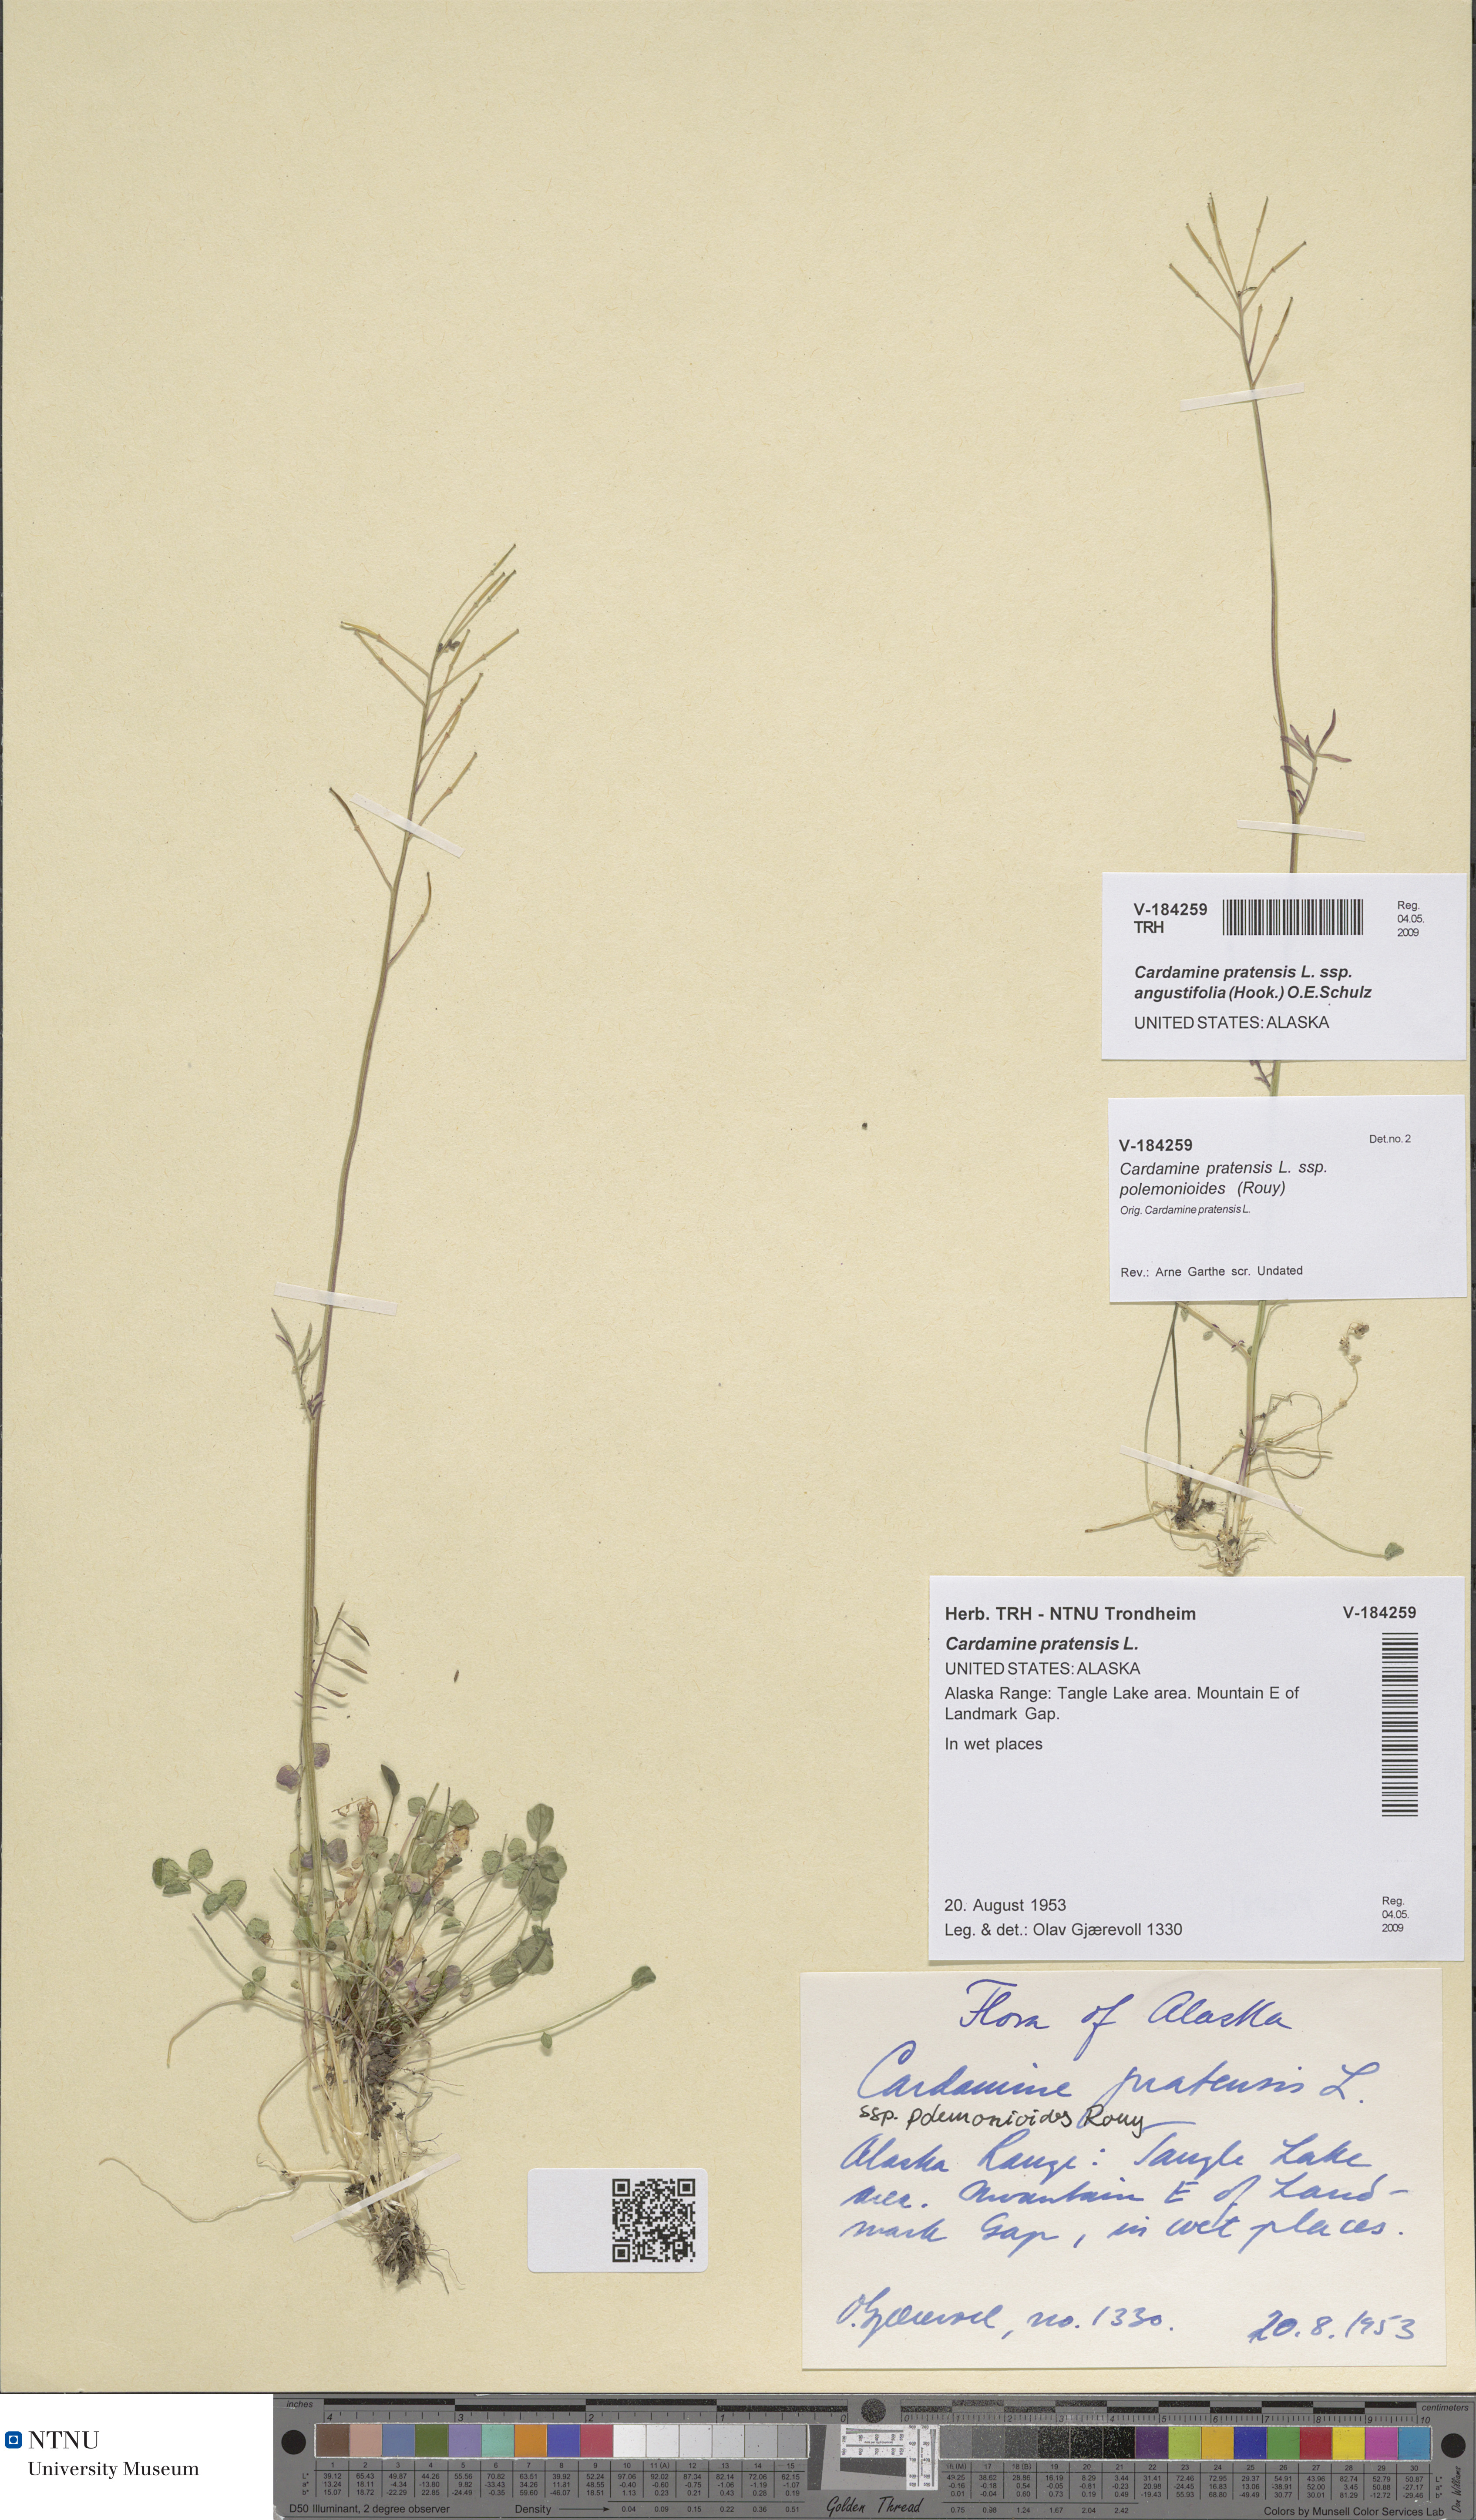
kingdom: Plantae
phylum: Tracheophyta
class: Magnoliopsida
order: Brassicales
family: Brassicaceae
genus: Cardamine
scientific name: Cardamine nymanii
